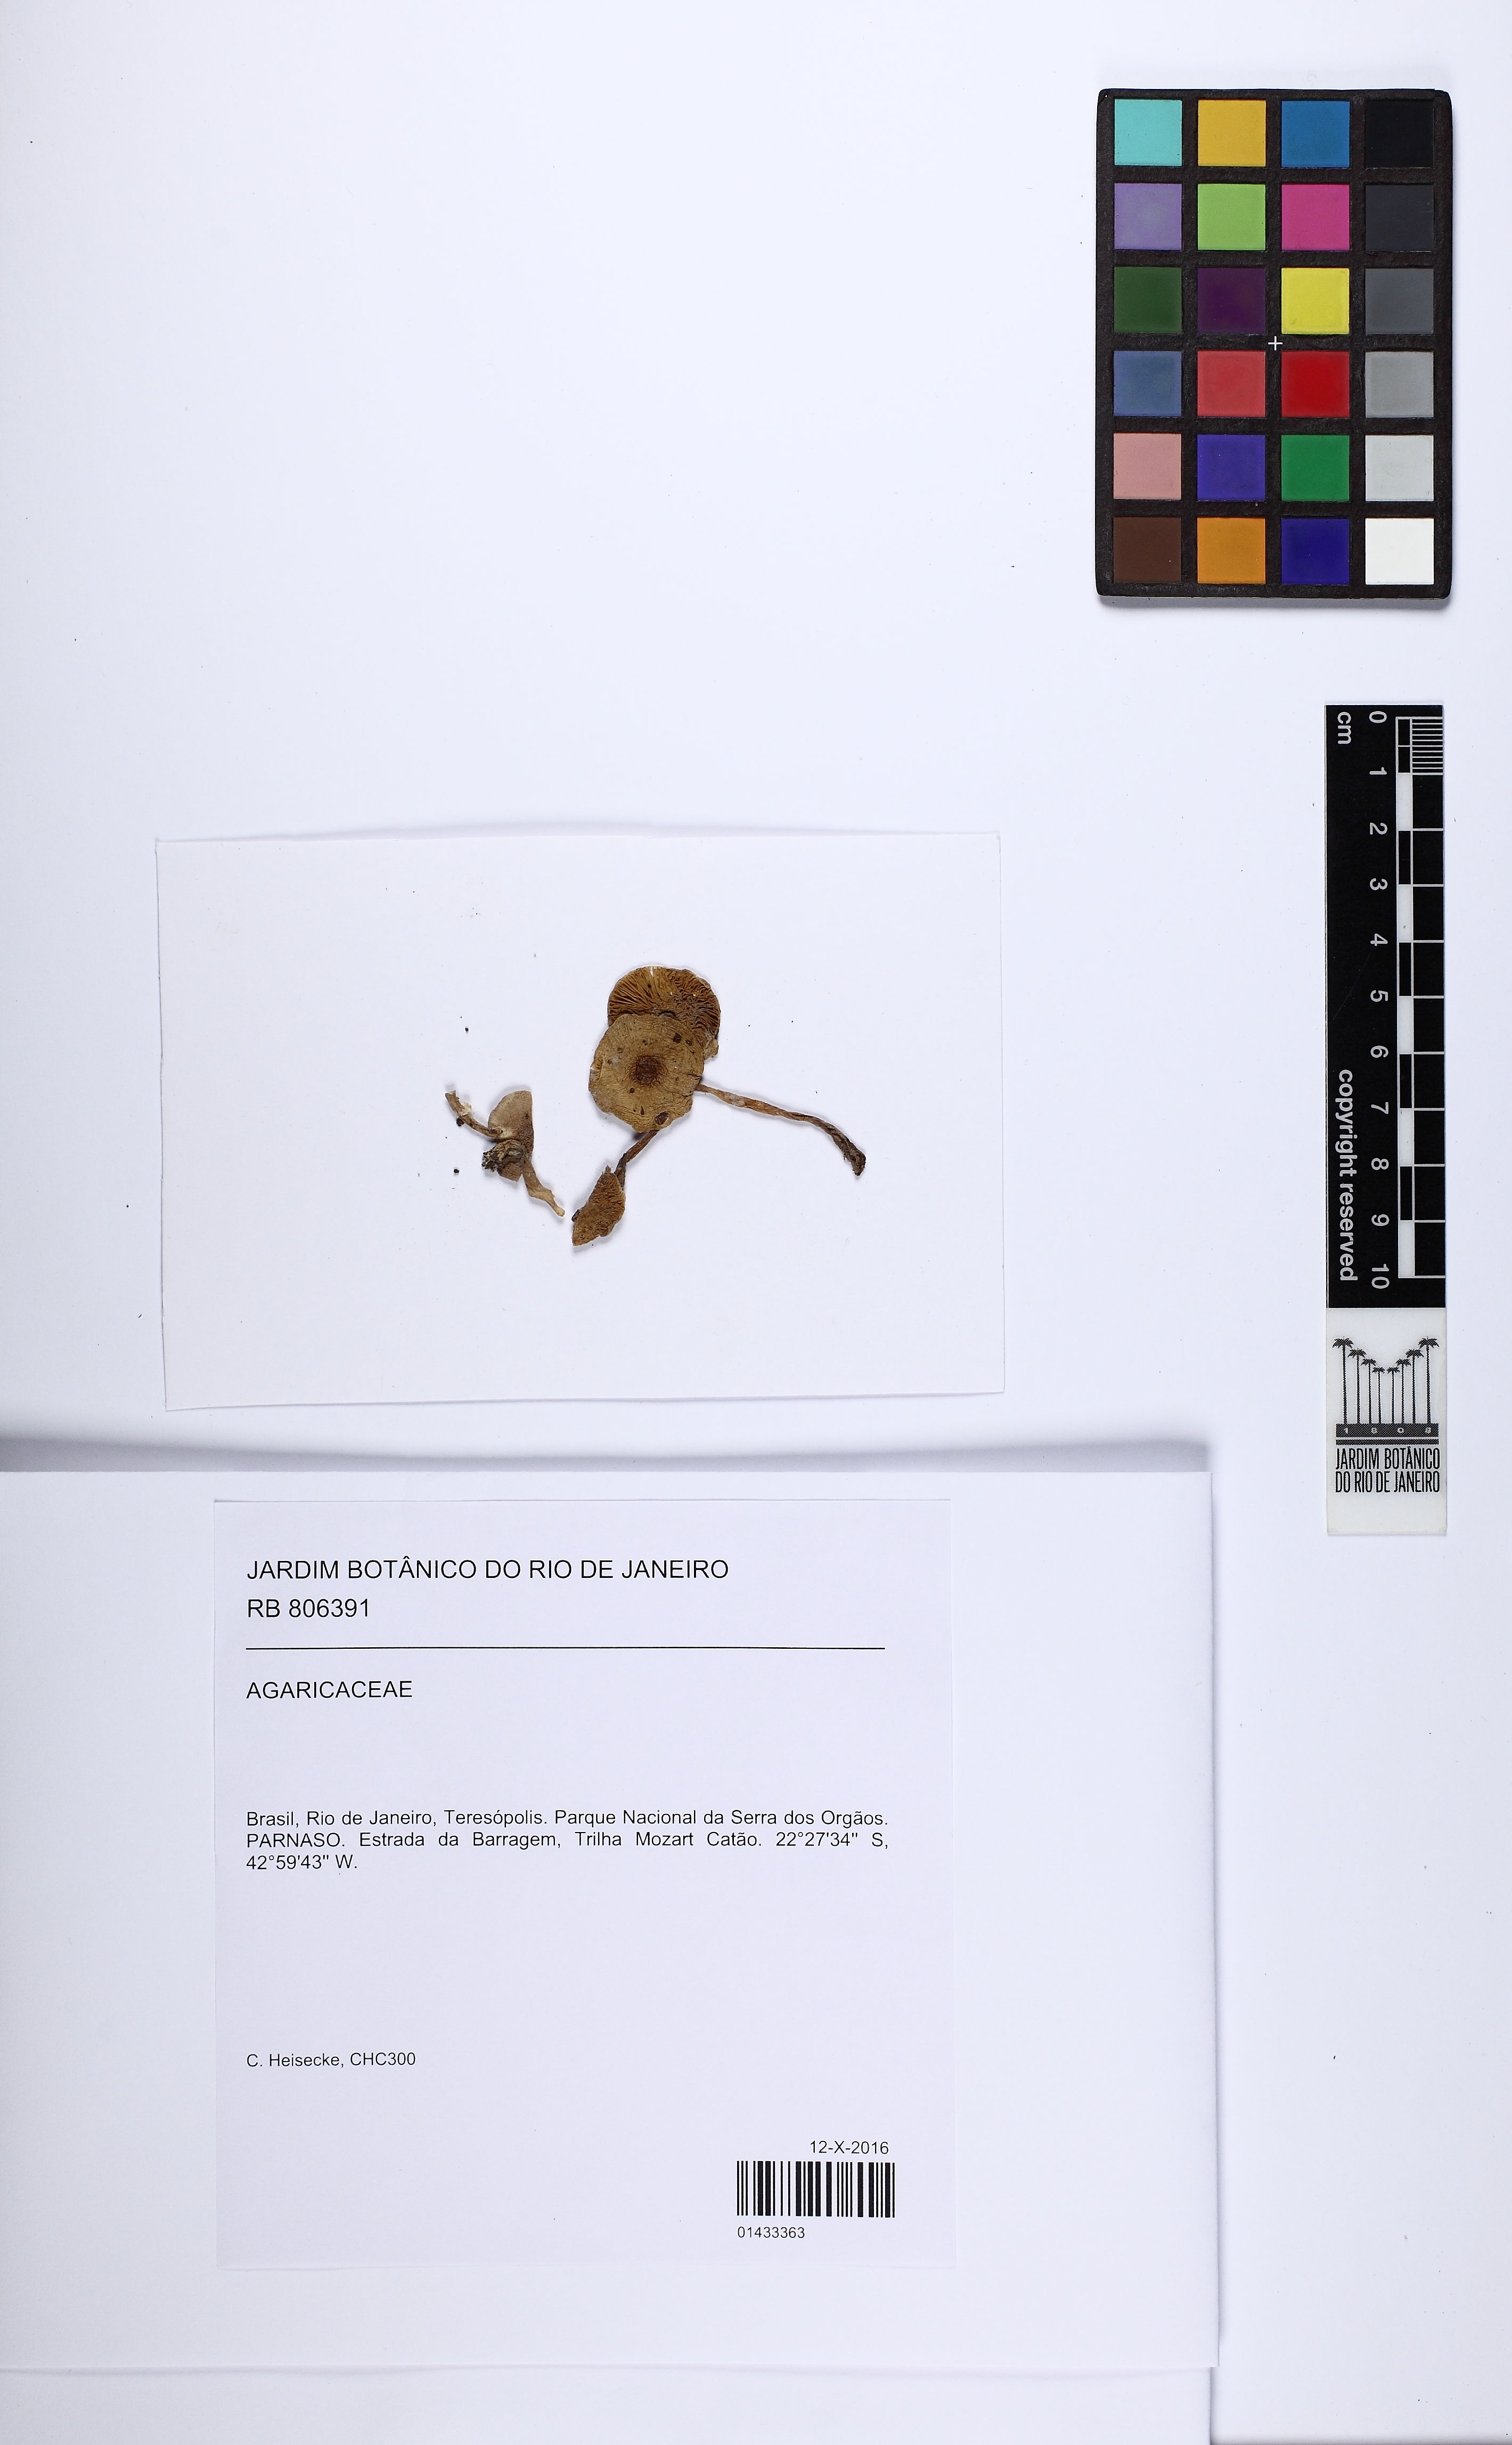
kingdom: Fungi
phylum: Basidiomycota
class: Agaricomycetes
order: Agaricales
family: Agaricaceae
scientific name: Agaricaceae
